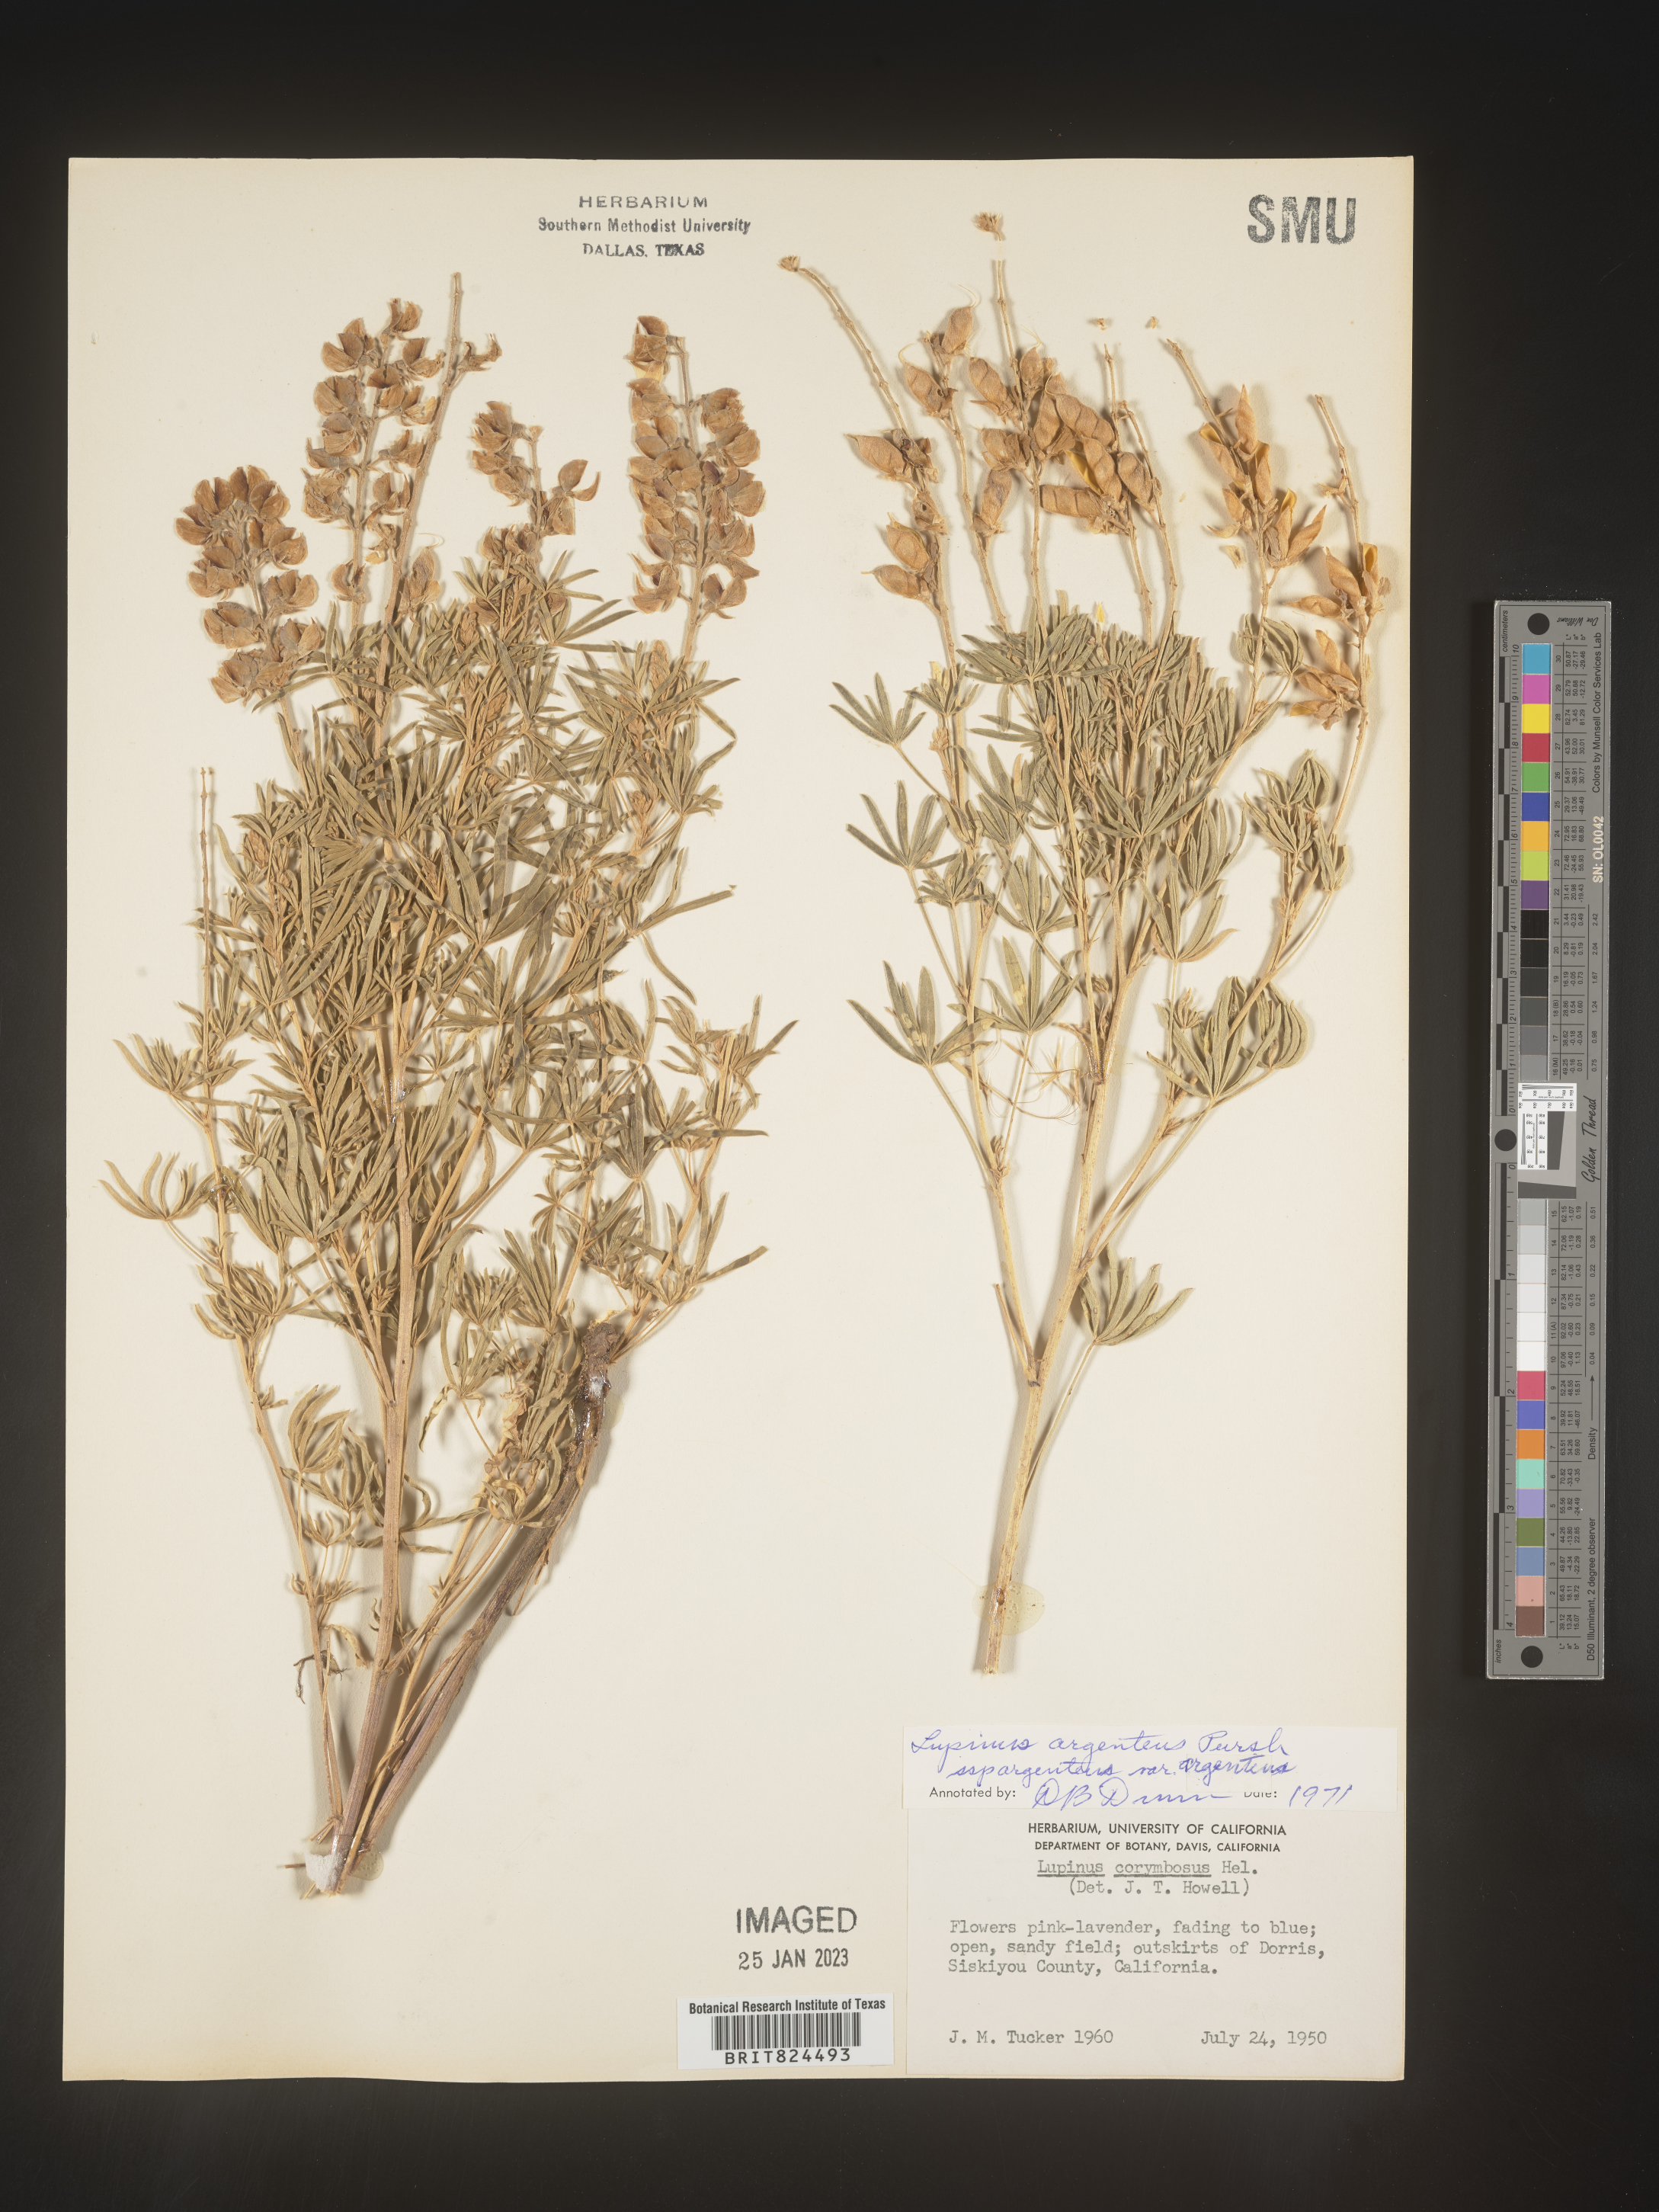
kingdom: Plantae
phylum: Tracheophyta
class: Magnoliopsida
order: Fabales
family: Fabaceae
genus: Lupinus
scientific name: Lupinus argenteus
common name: Silvery lupine
